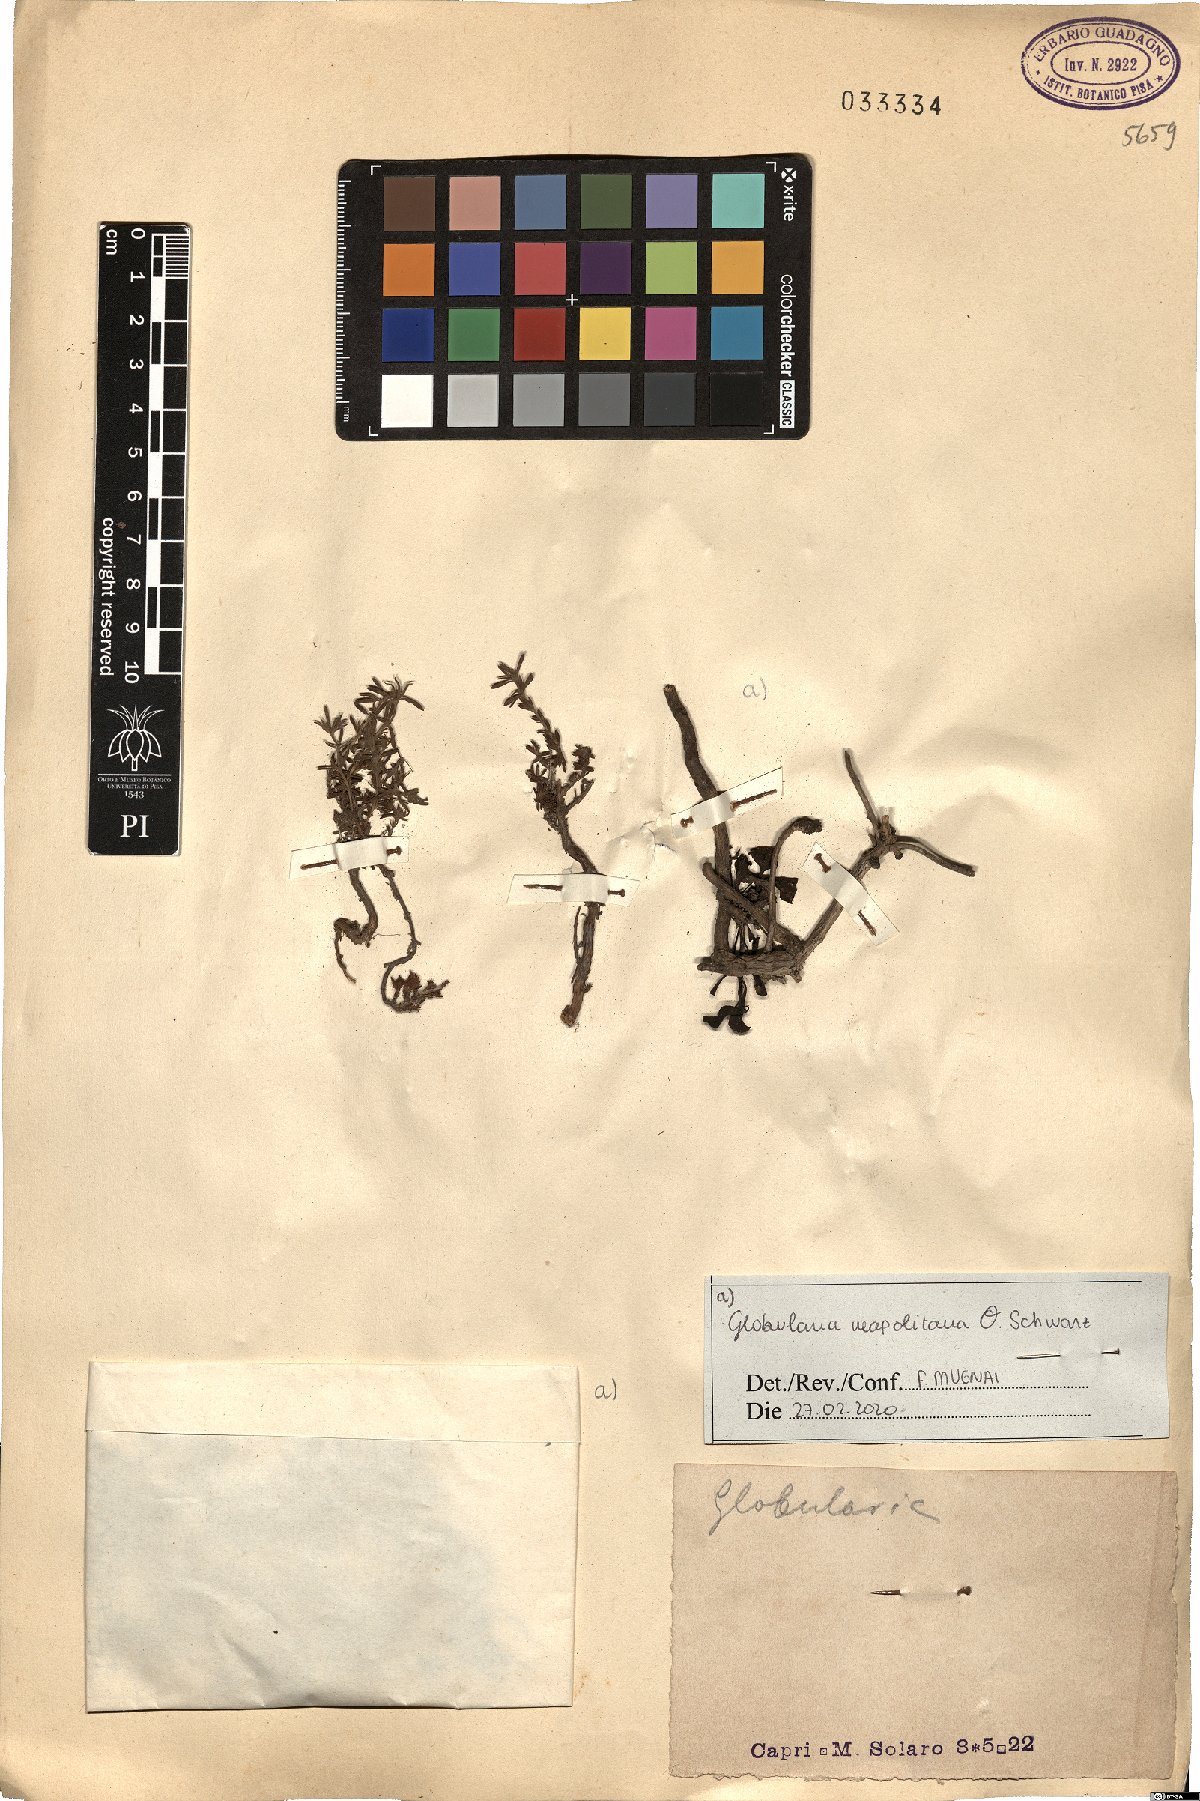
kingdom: Plantae
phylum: Tracheophyta
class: Magnoliopsida
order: Lamiales
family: Plantaginaceae
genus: Globularia
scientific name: Globularia cordifolia
